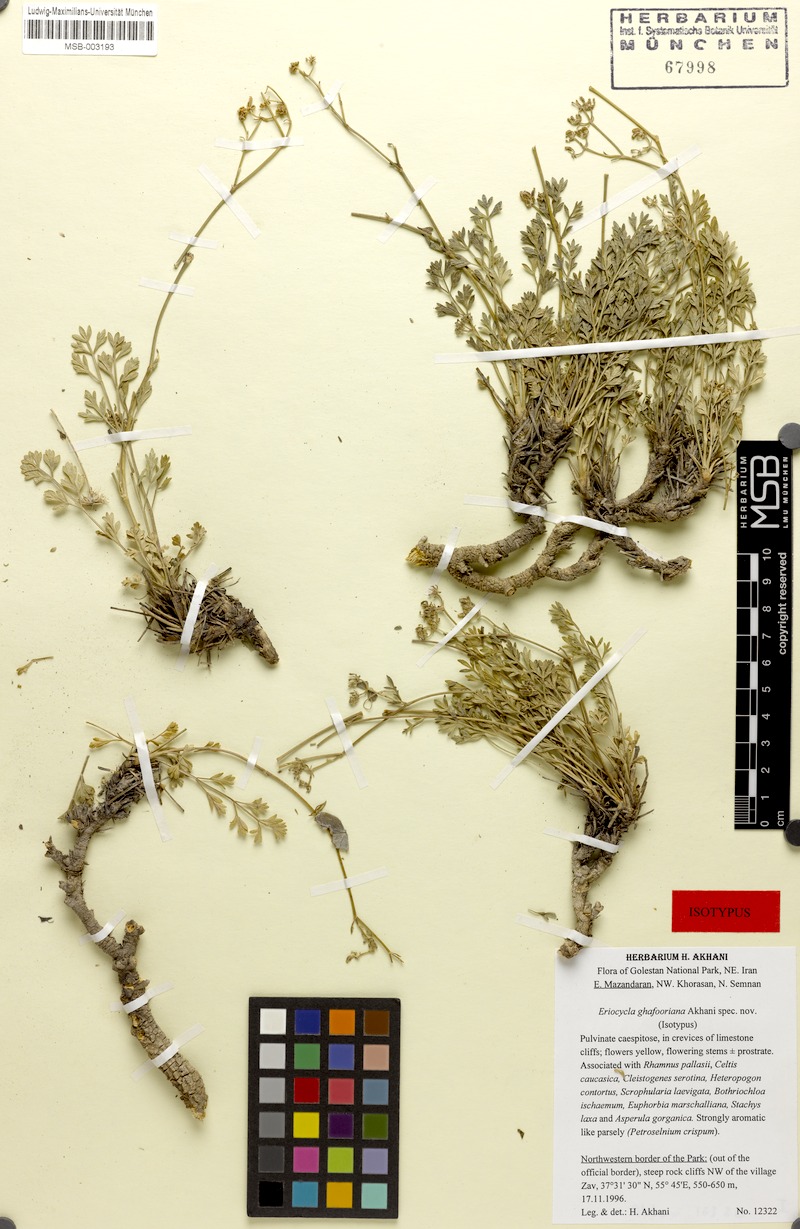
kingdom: Plantae
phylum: Tracheophyta
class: Magnoliopsida
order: Apiales
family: Apiaceae
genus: Seseli
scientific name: Seseli ghafoorianum
